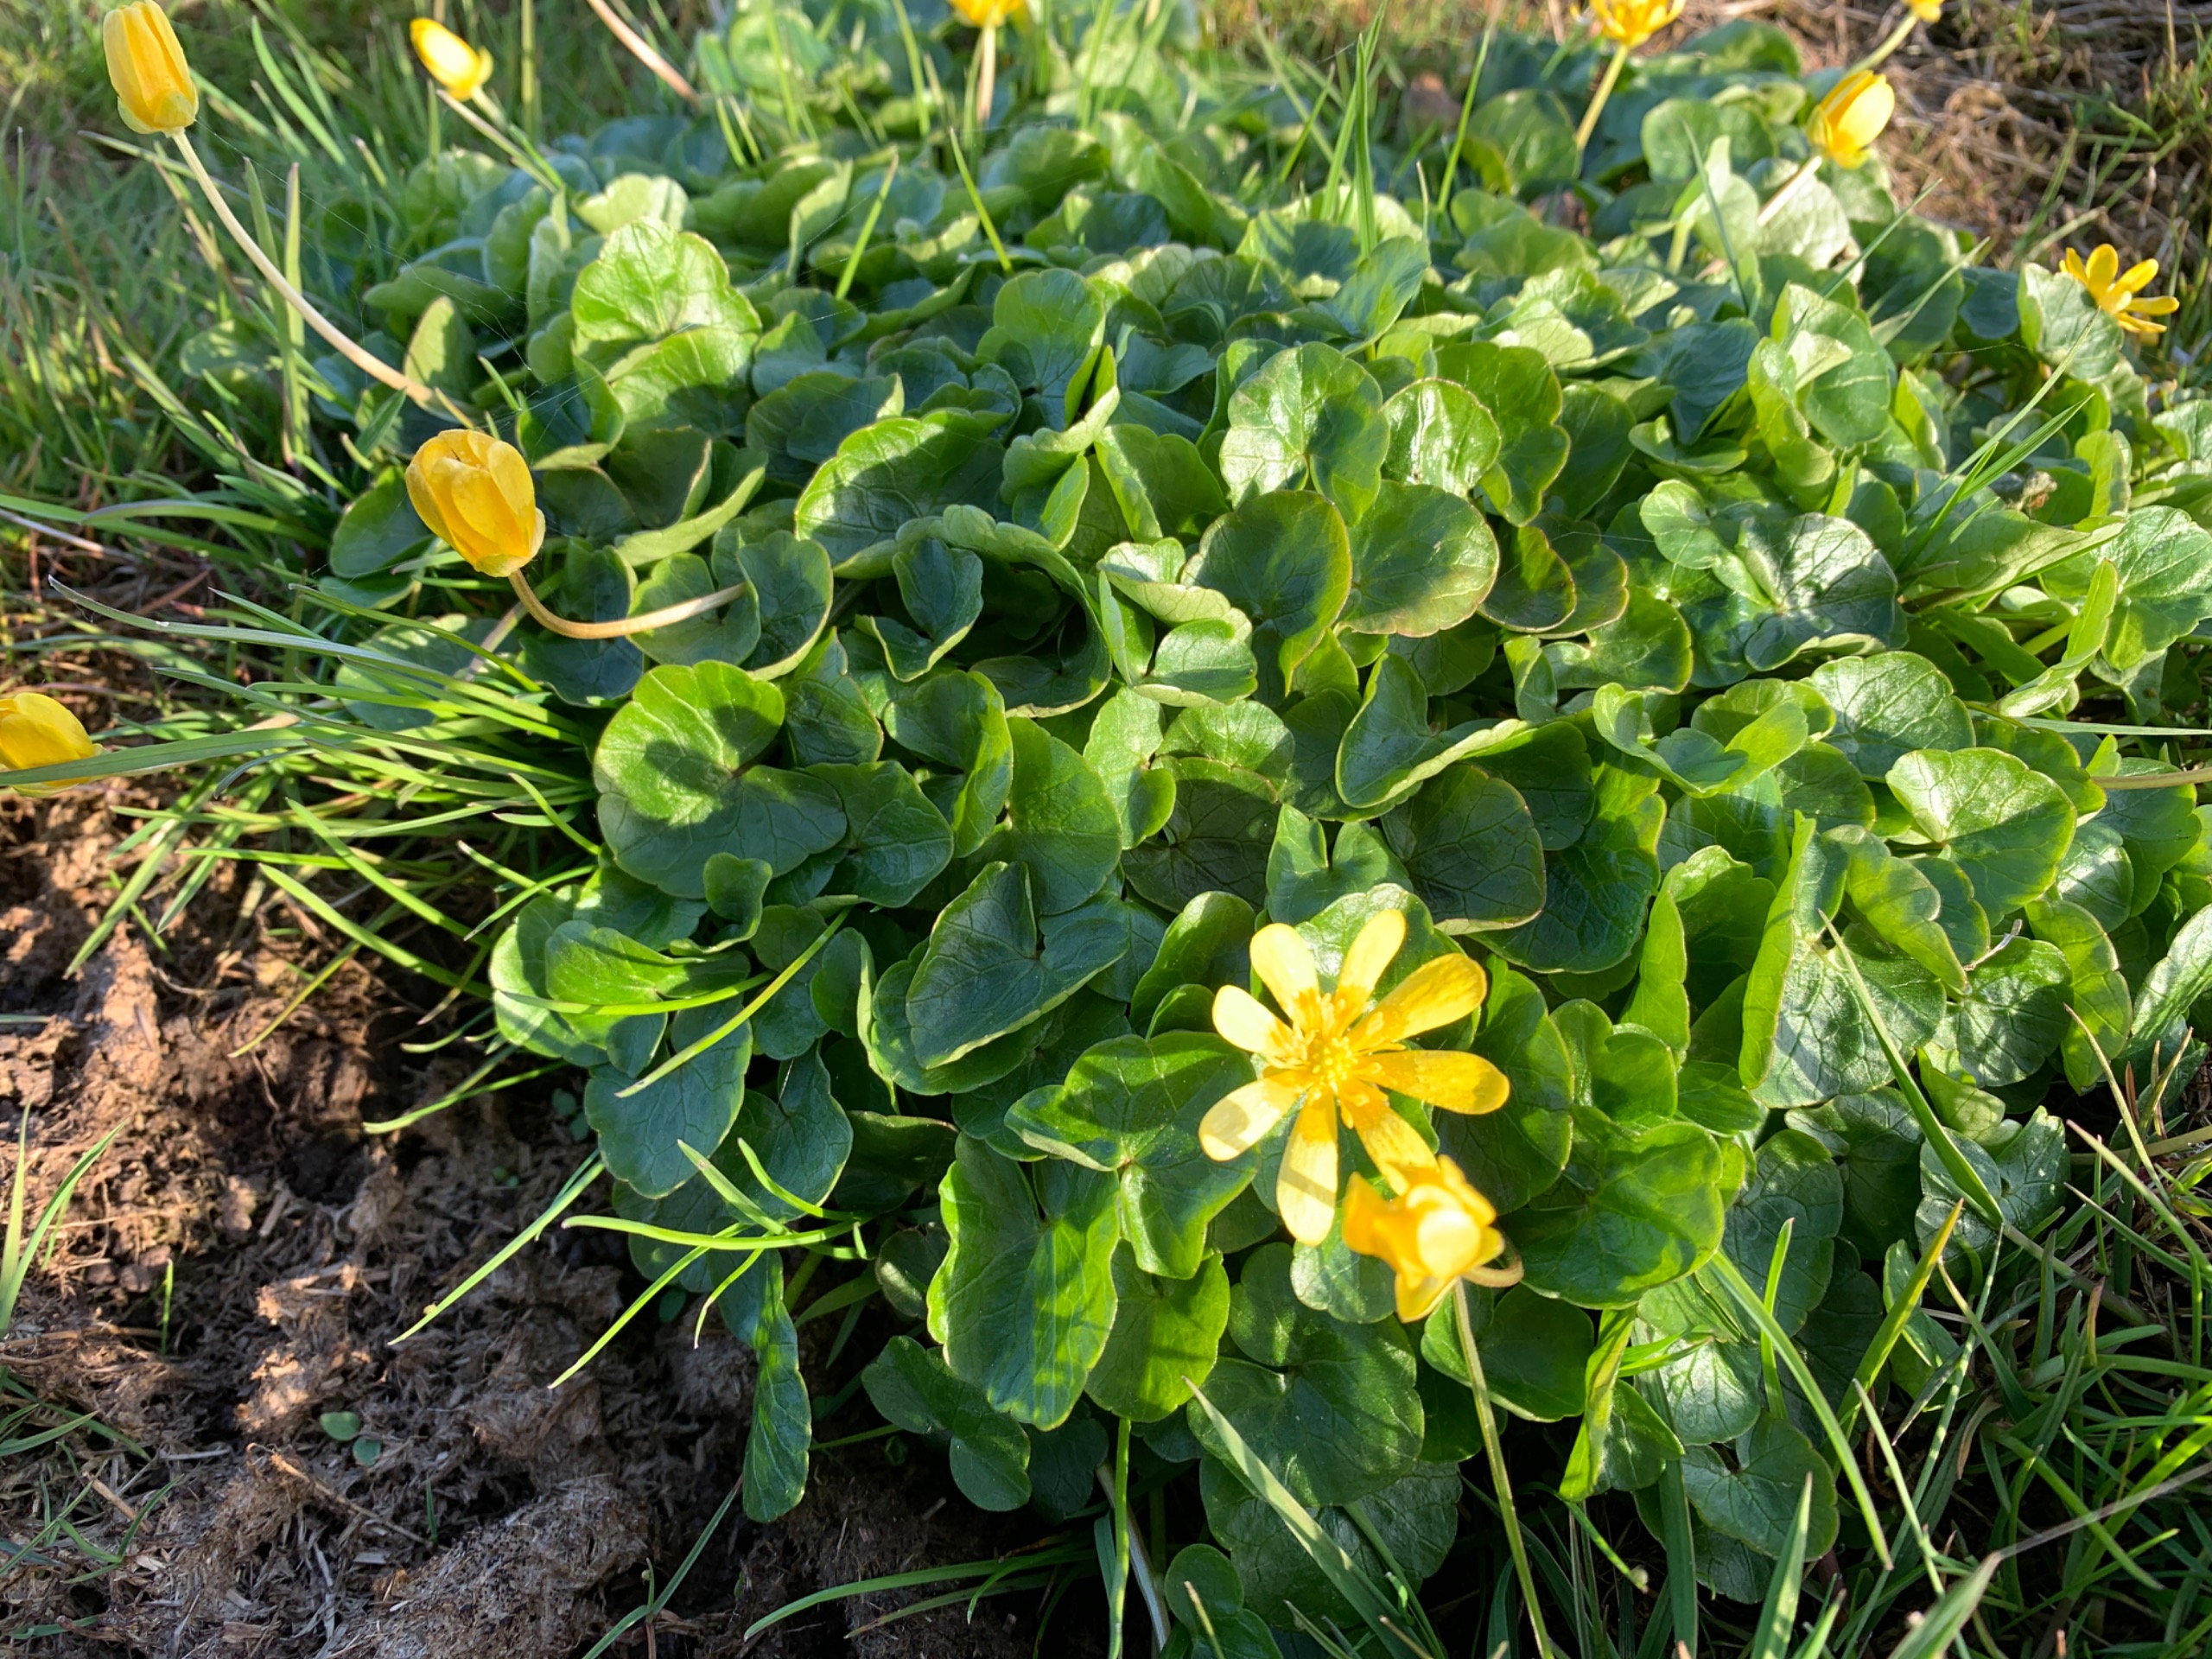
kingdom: Plantae
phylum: Tracheophyta
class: Magnoliopsida
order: Ranunculales
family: Ranunculaceae
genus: Ficaria
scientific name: Ficaria verna
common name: Vorterod
